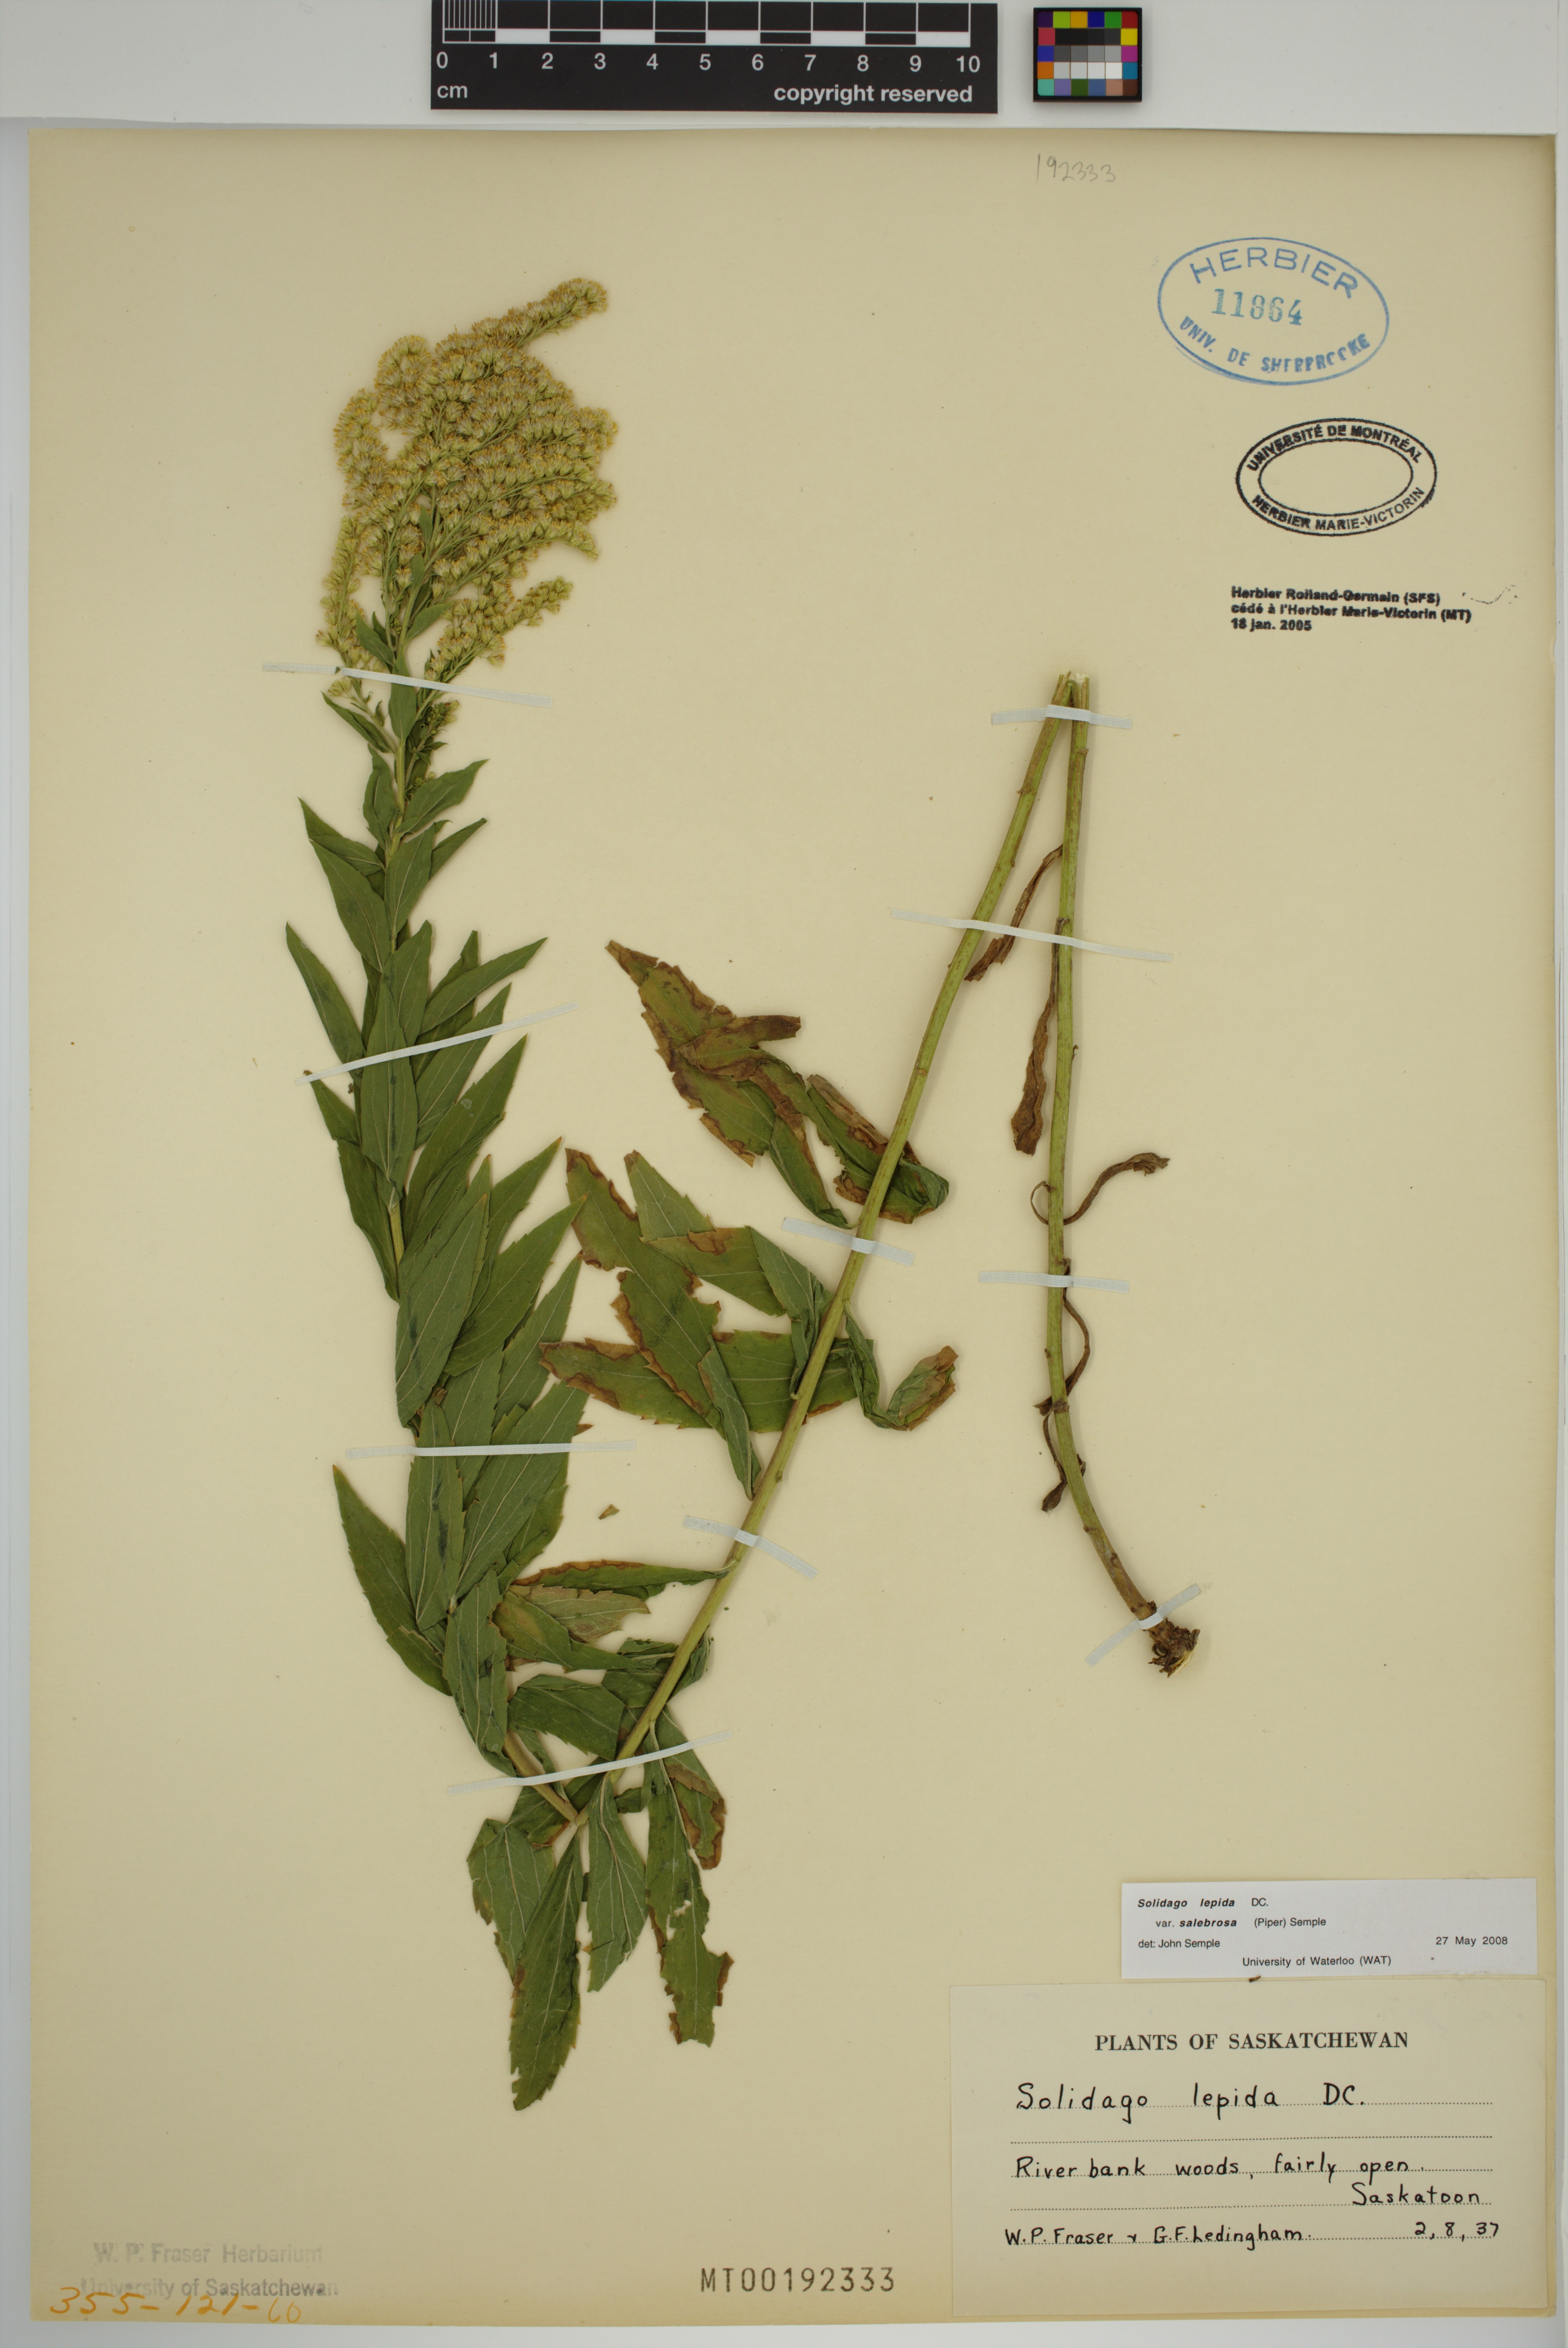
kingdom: Plantae
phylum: Tracheophyta
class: Magnoliopsida
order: Asterales
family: Asteraceae
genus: Solidago
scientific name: Solidago lepida
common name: Western canada goldenrod
